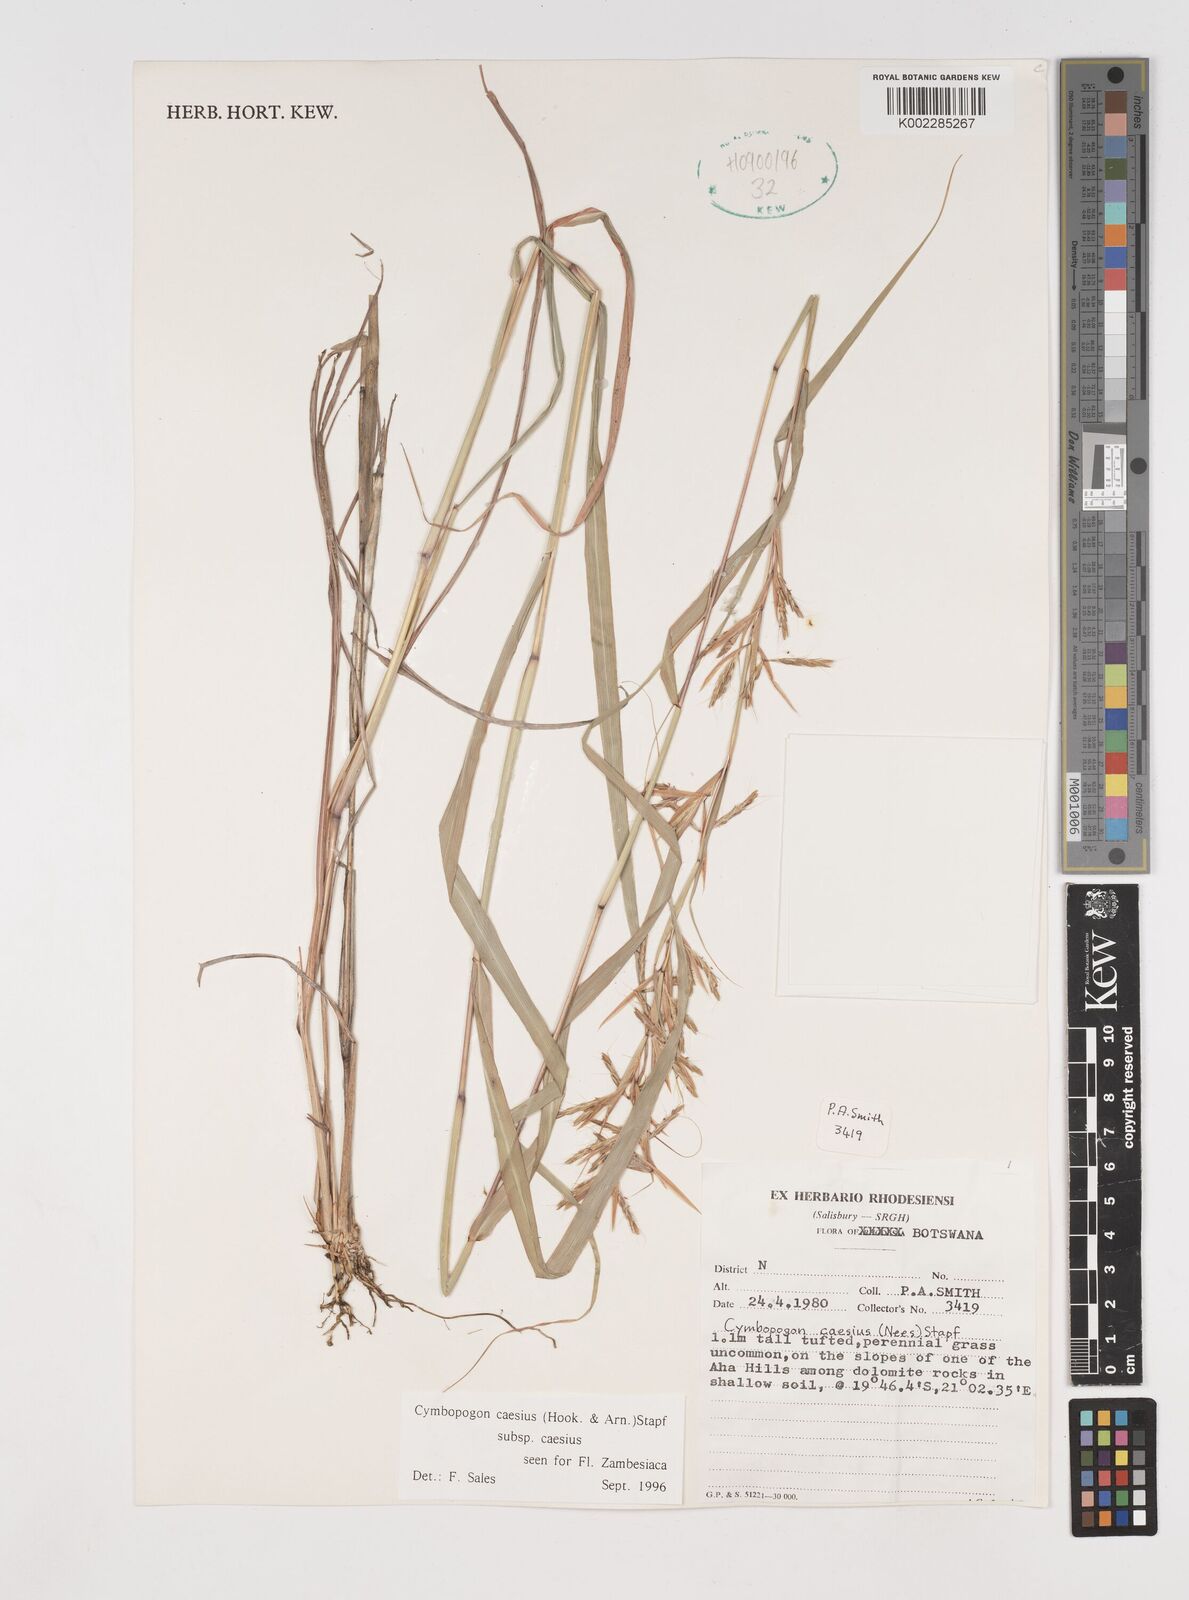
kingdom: Plantae
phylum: Tracheophyta
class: Liliopsida
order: Poales
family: Poaceae
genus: Cymbopogon
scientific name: Cymbopogon caesius
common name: Kachi grass
